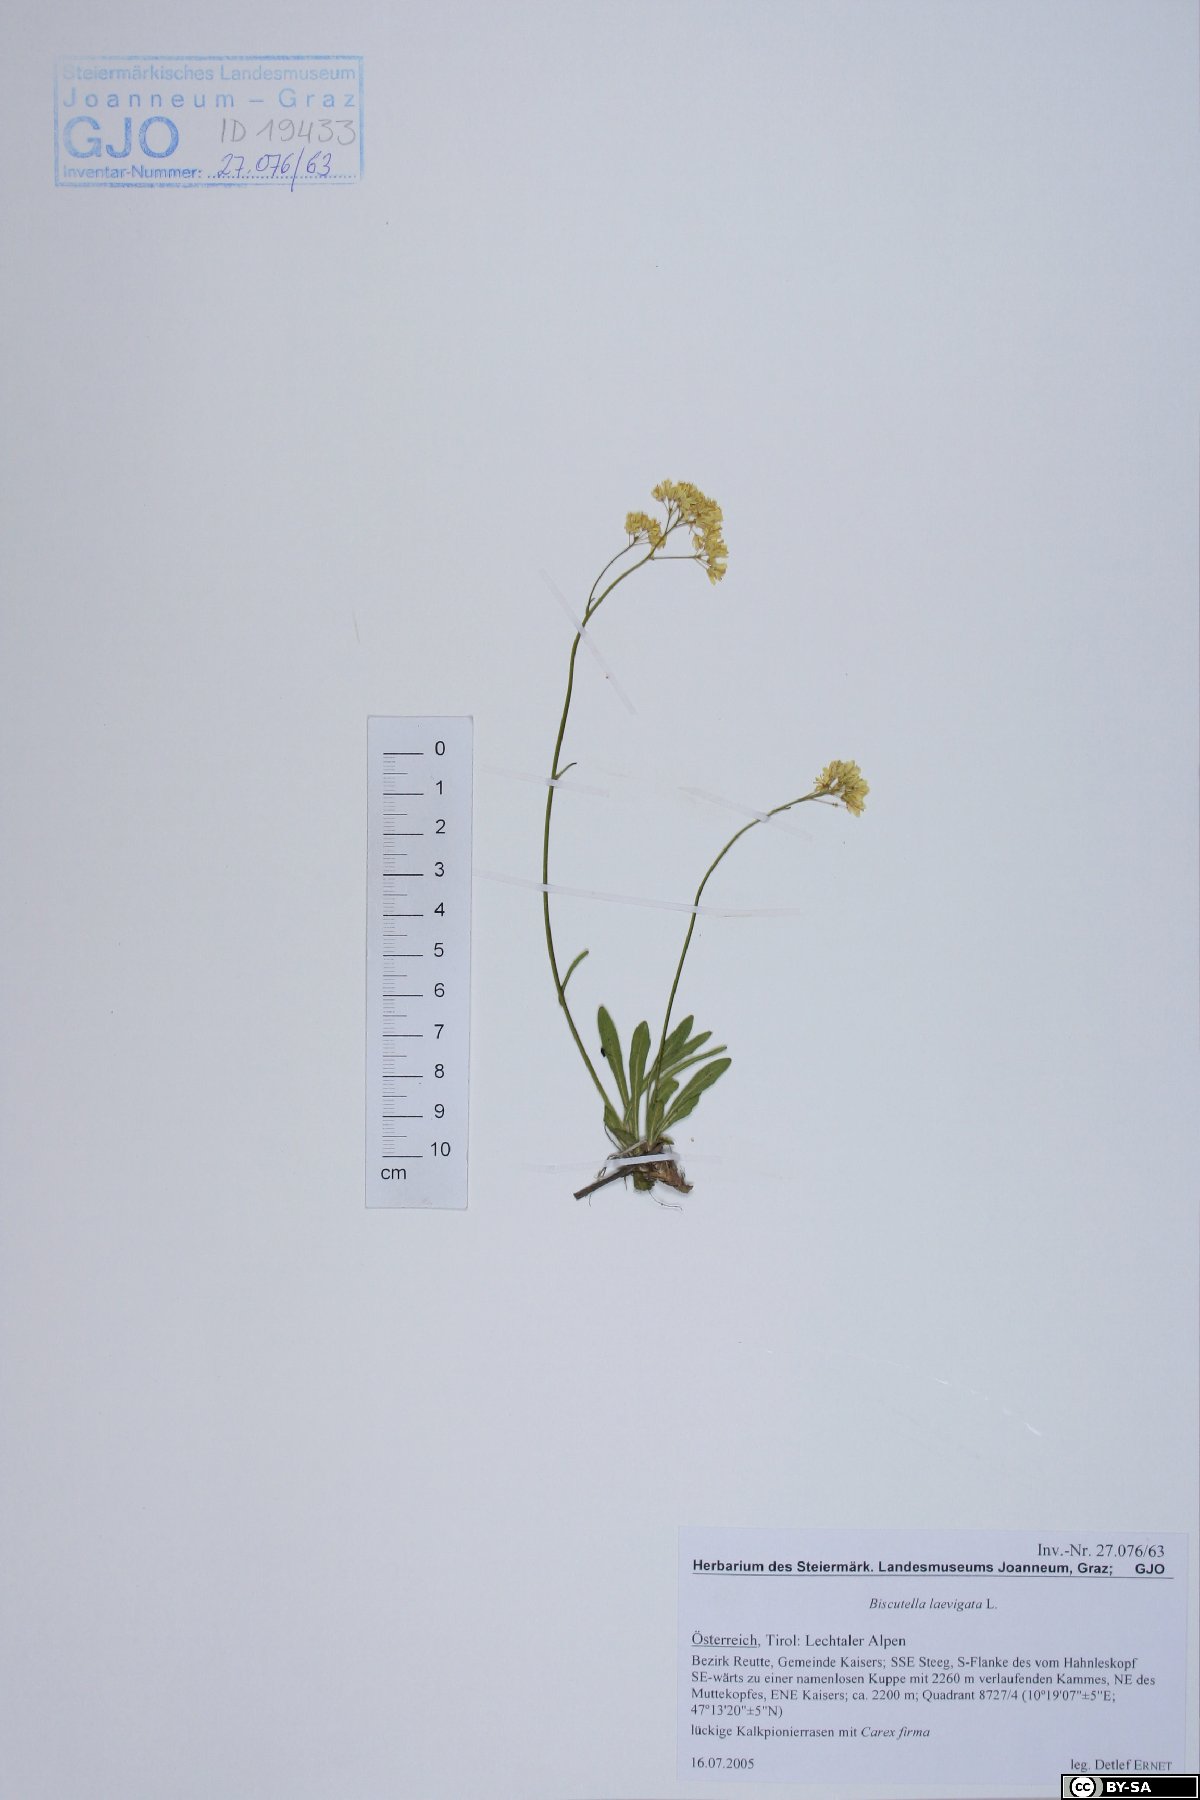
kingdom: Plantae
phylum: Tracheophyta
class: Magnoliopsida
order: Brassicales
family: Brassicaceae
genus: Biscutella
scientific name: Biscutella laevigata
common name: Buckler mustard
